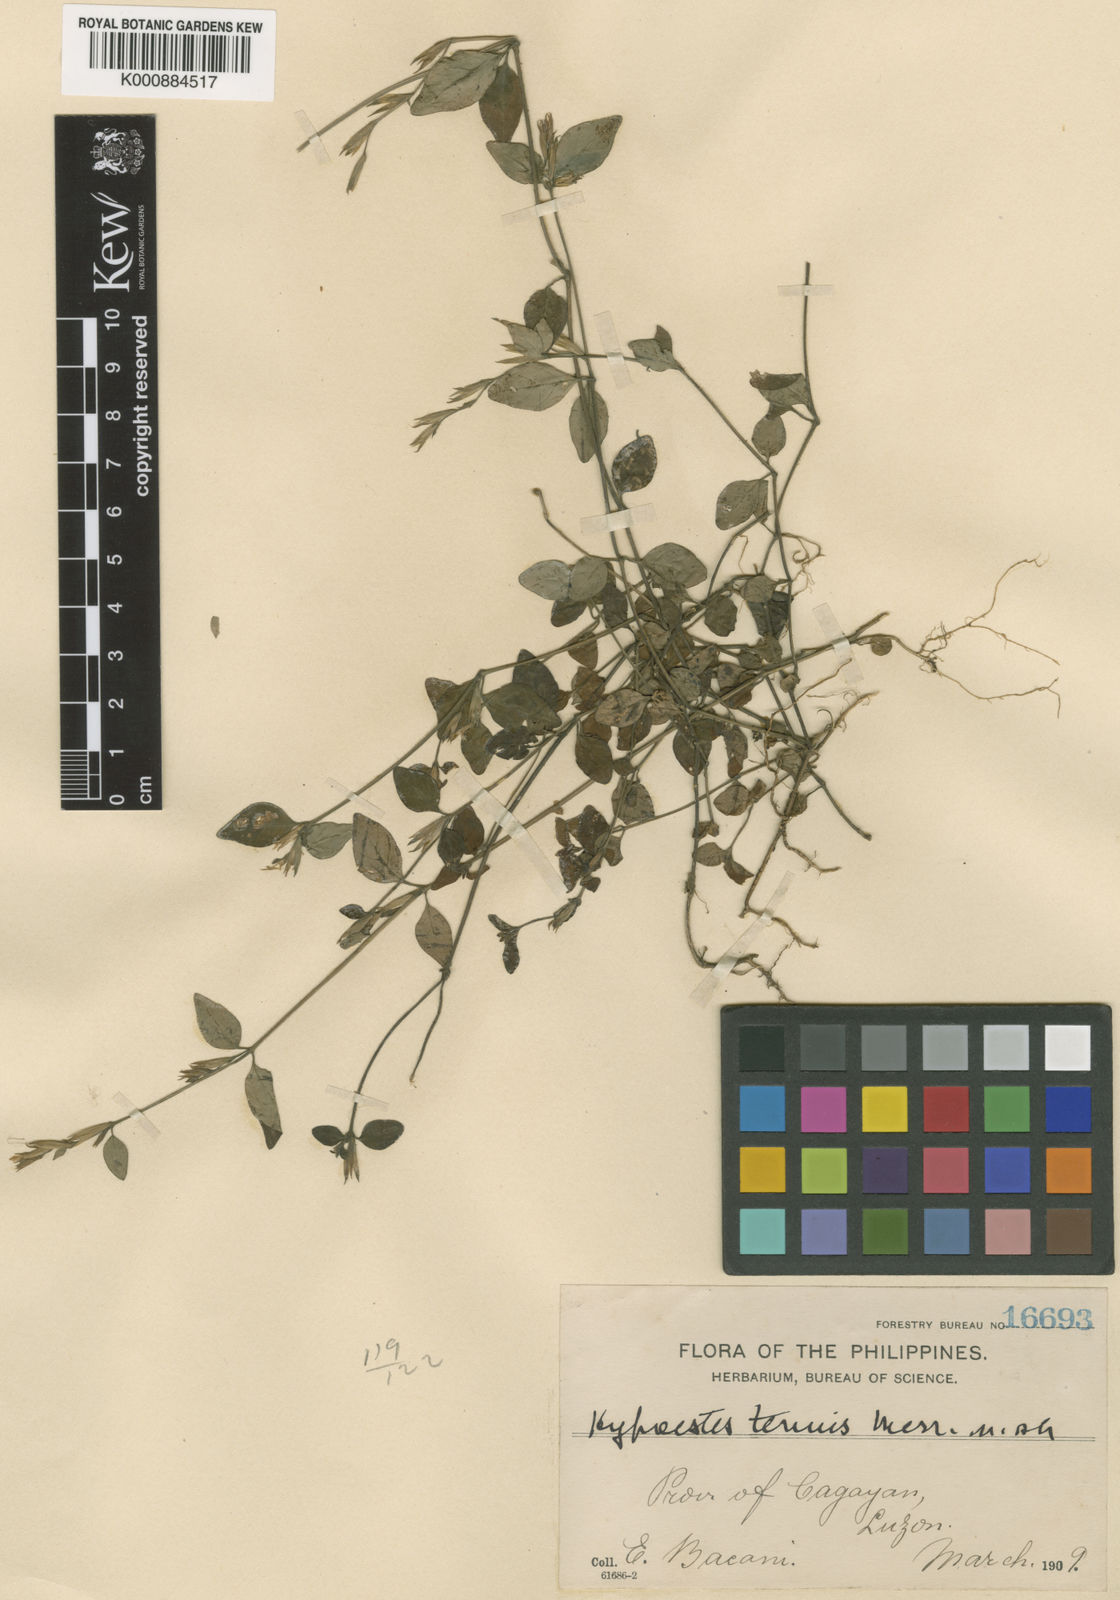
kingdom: Plantae
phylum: Tracheophyta
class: Magnoliopsida
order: Lamiales
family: Acanthaceae
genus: Hypoestes
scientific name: Hypoestes tenuis
